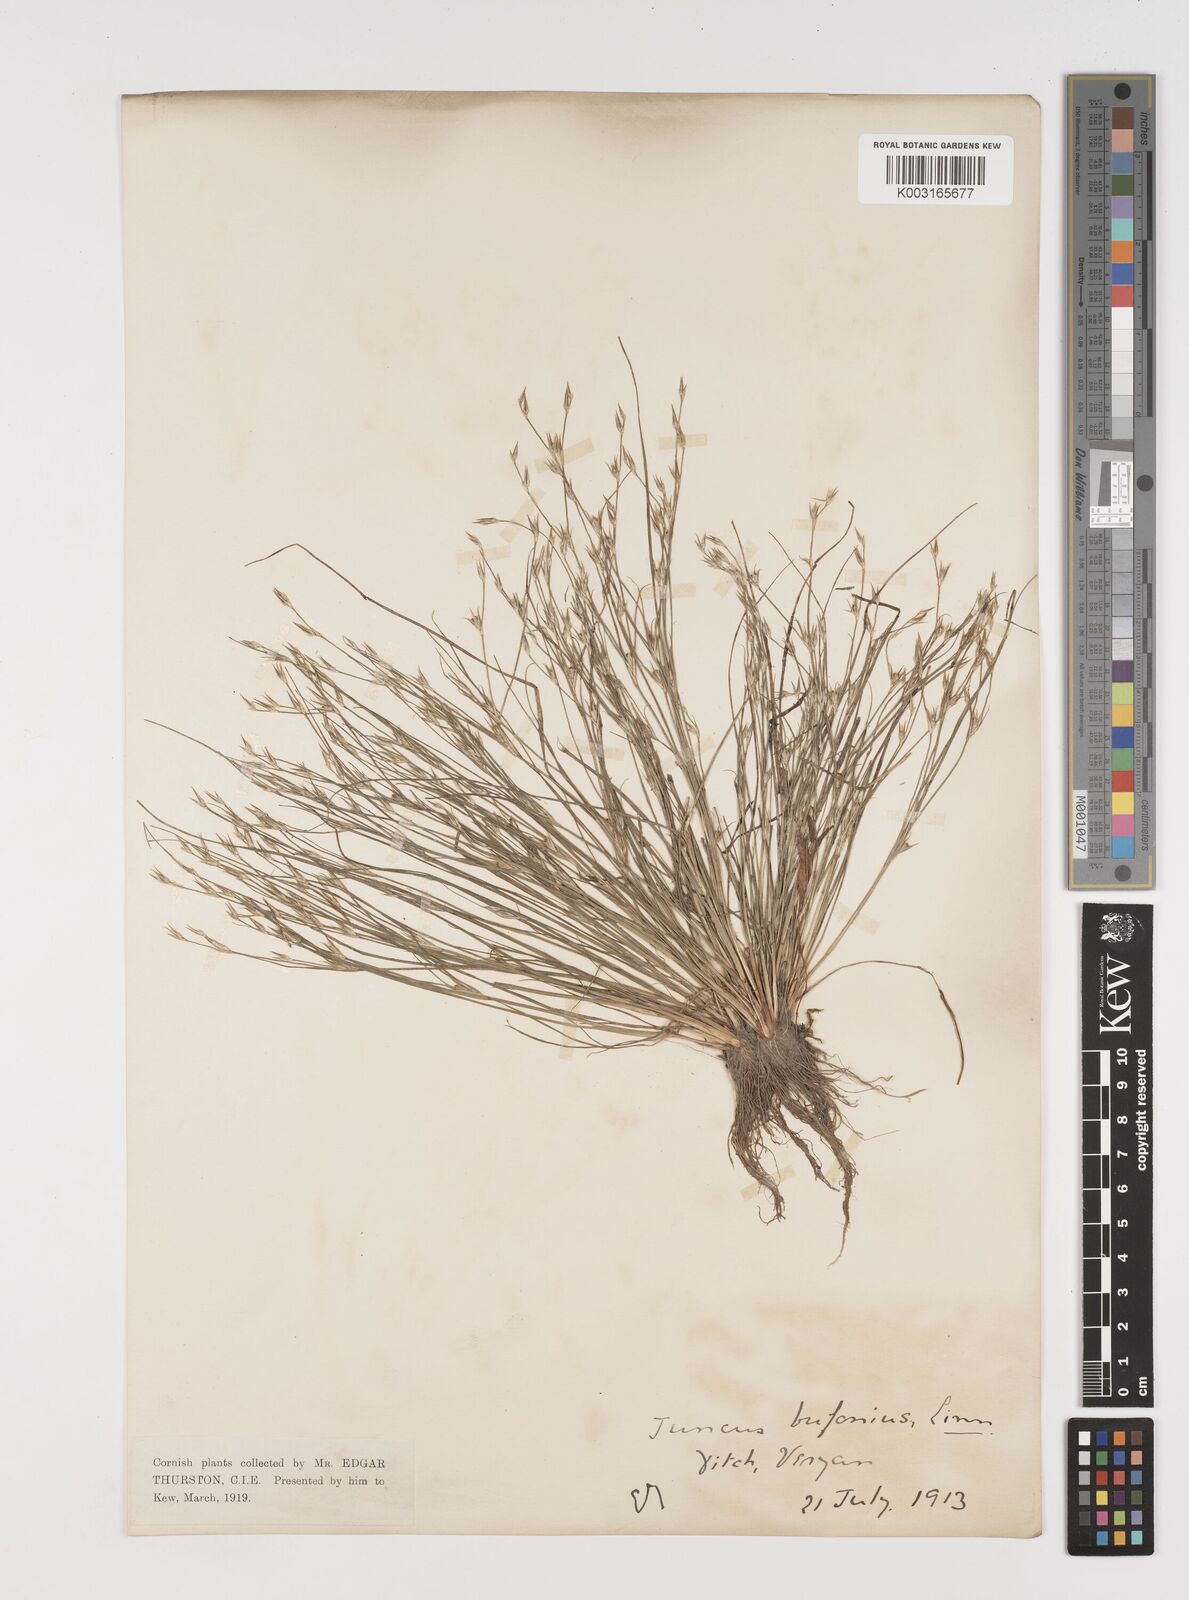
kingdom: Plantae
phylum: Tracheophyta
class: Liliopsida
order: Poales
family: Juncaceae
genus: Juncus
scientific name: Juncus bufonius
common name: Toad rush
